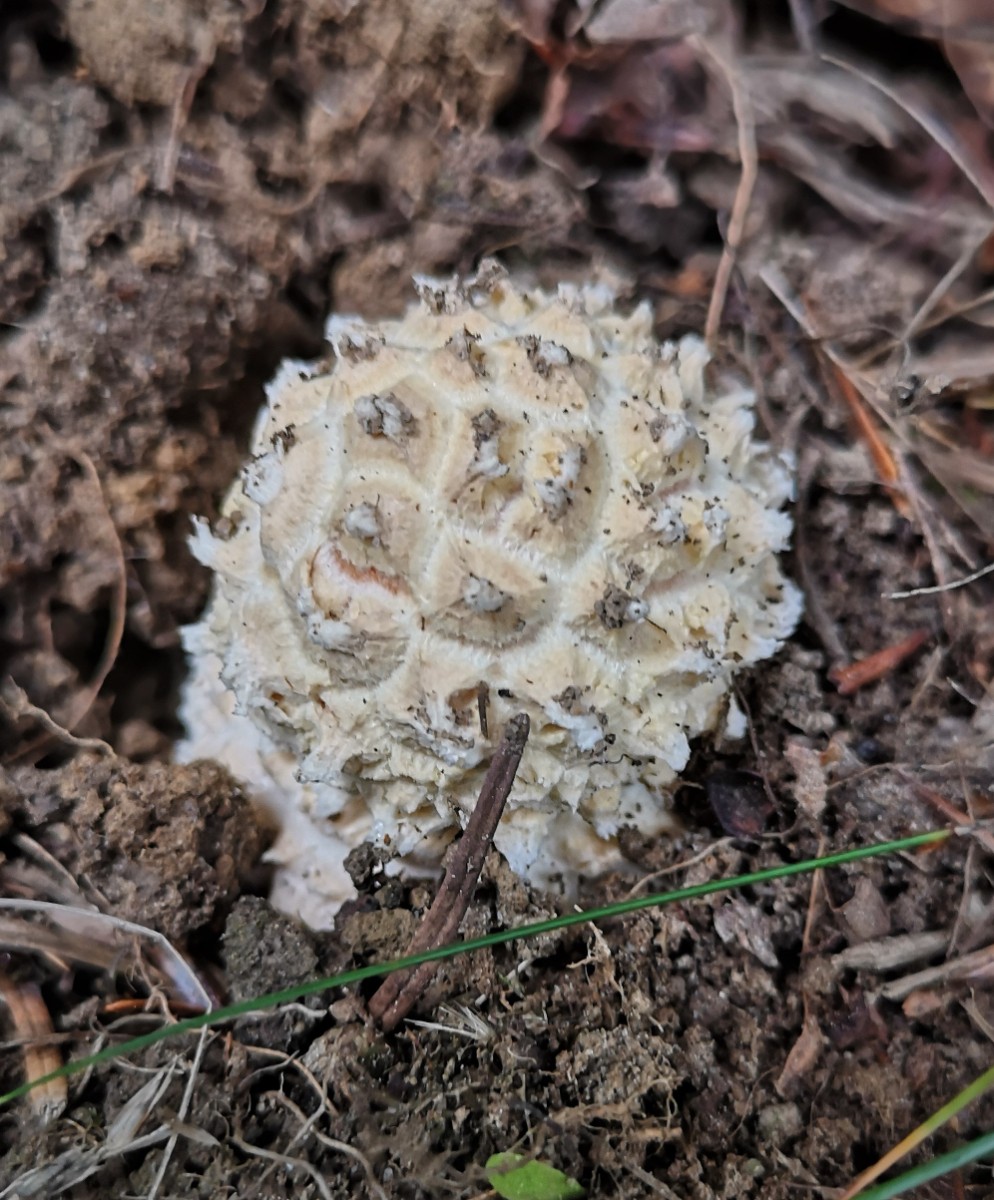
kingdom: Fungi
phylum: Basidiomycota
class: Agaricomycetes
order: Agaricales
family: Amanitaceae
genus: Amanita
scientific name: Amanita
